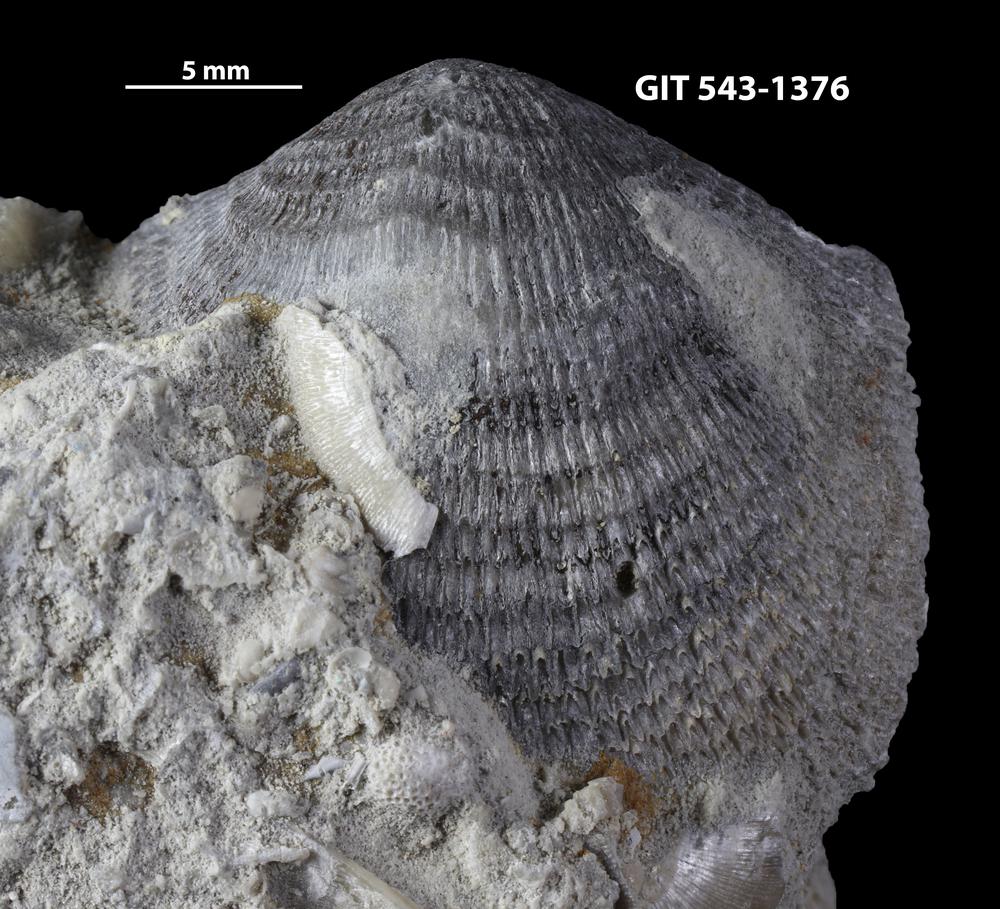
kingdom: Animalia
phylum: Brachiopoda
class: Rhynchonellata
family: Clitambonitidae
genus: Clitambonites
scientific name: Clitambonites squamatus
